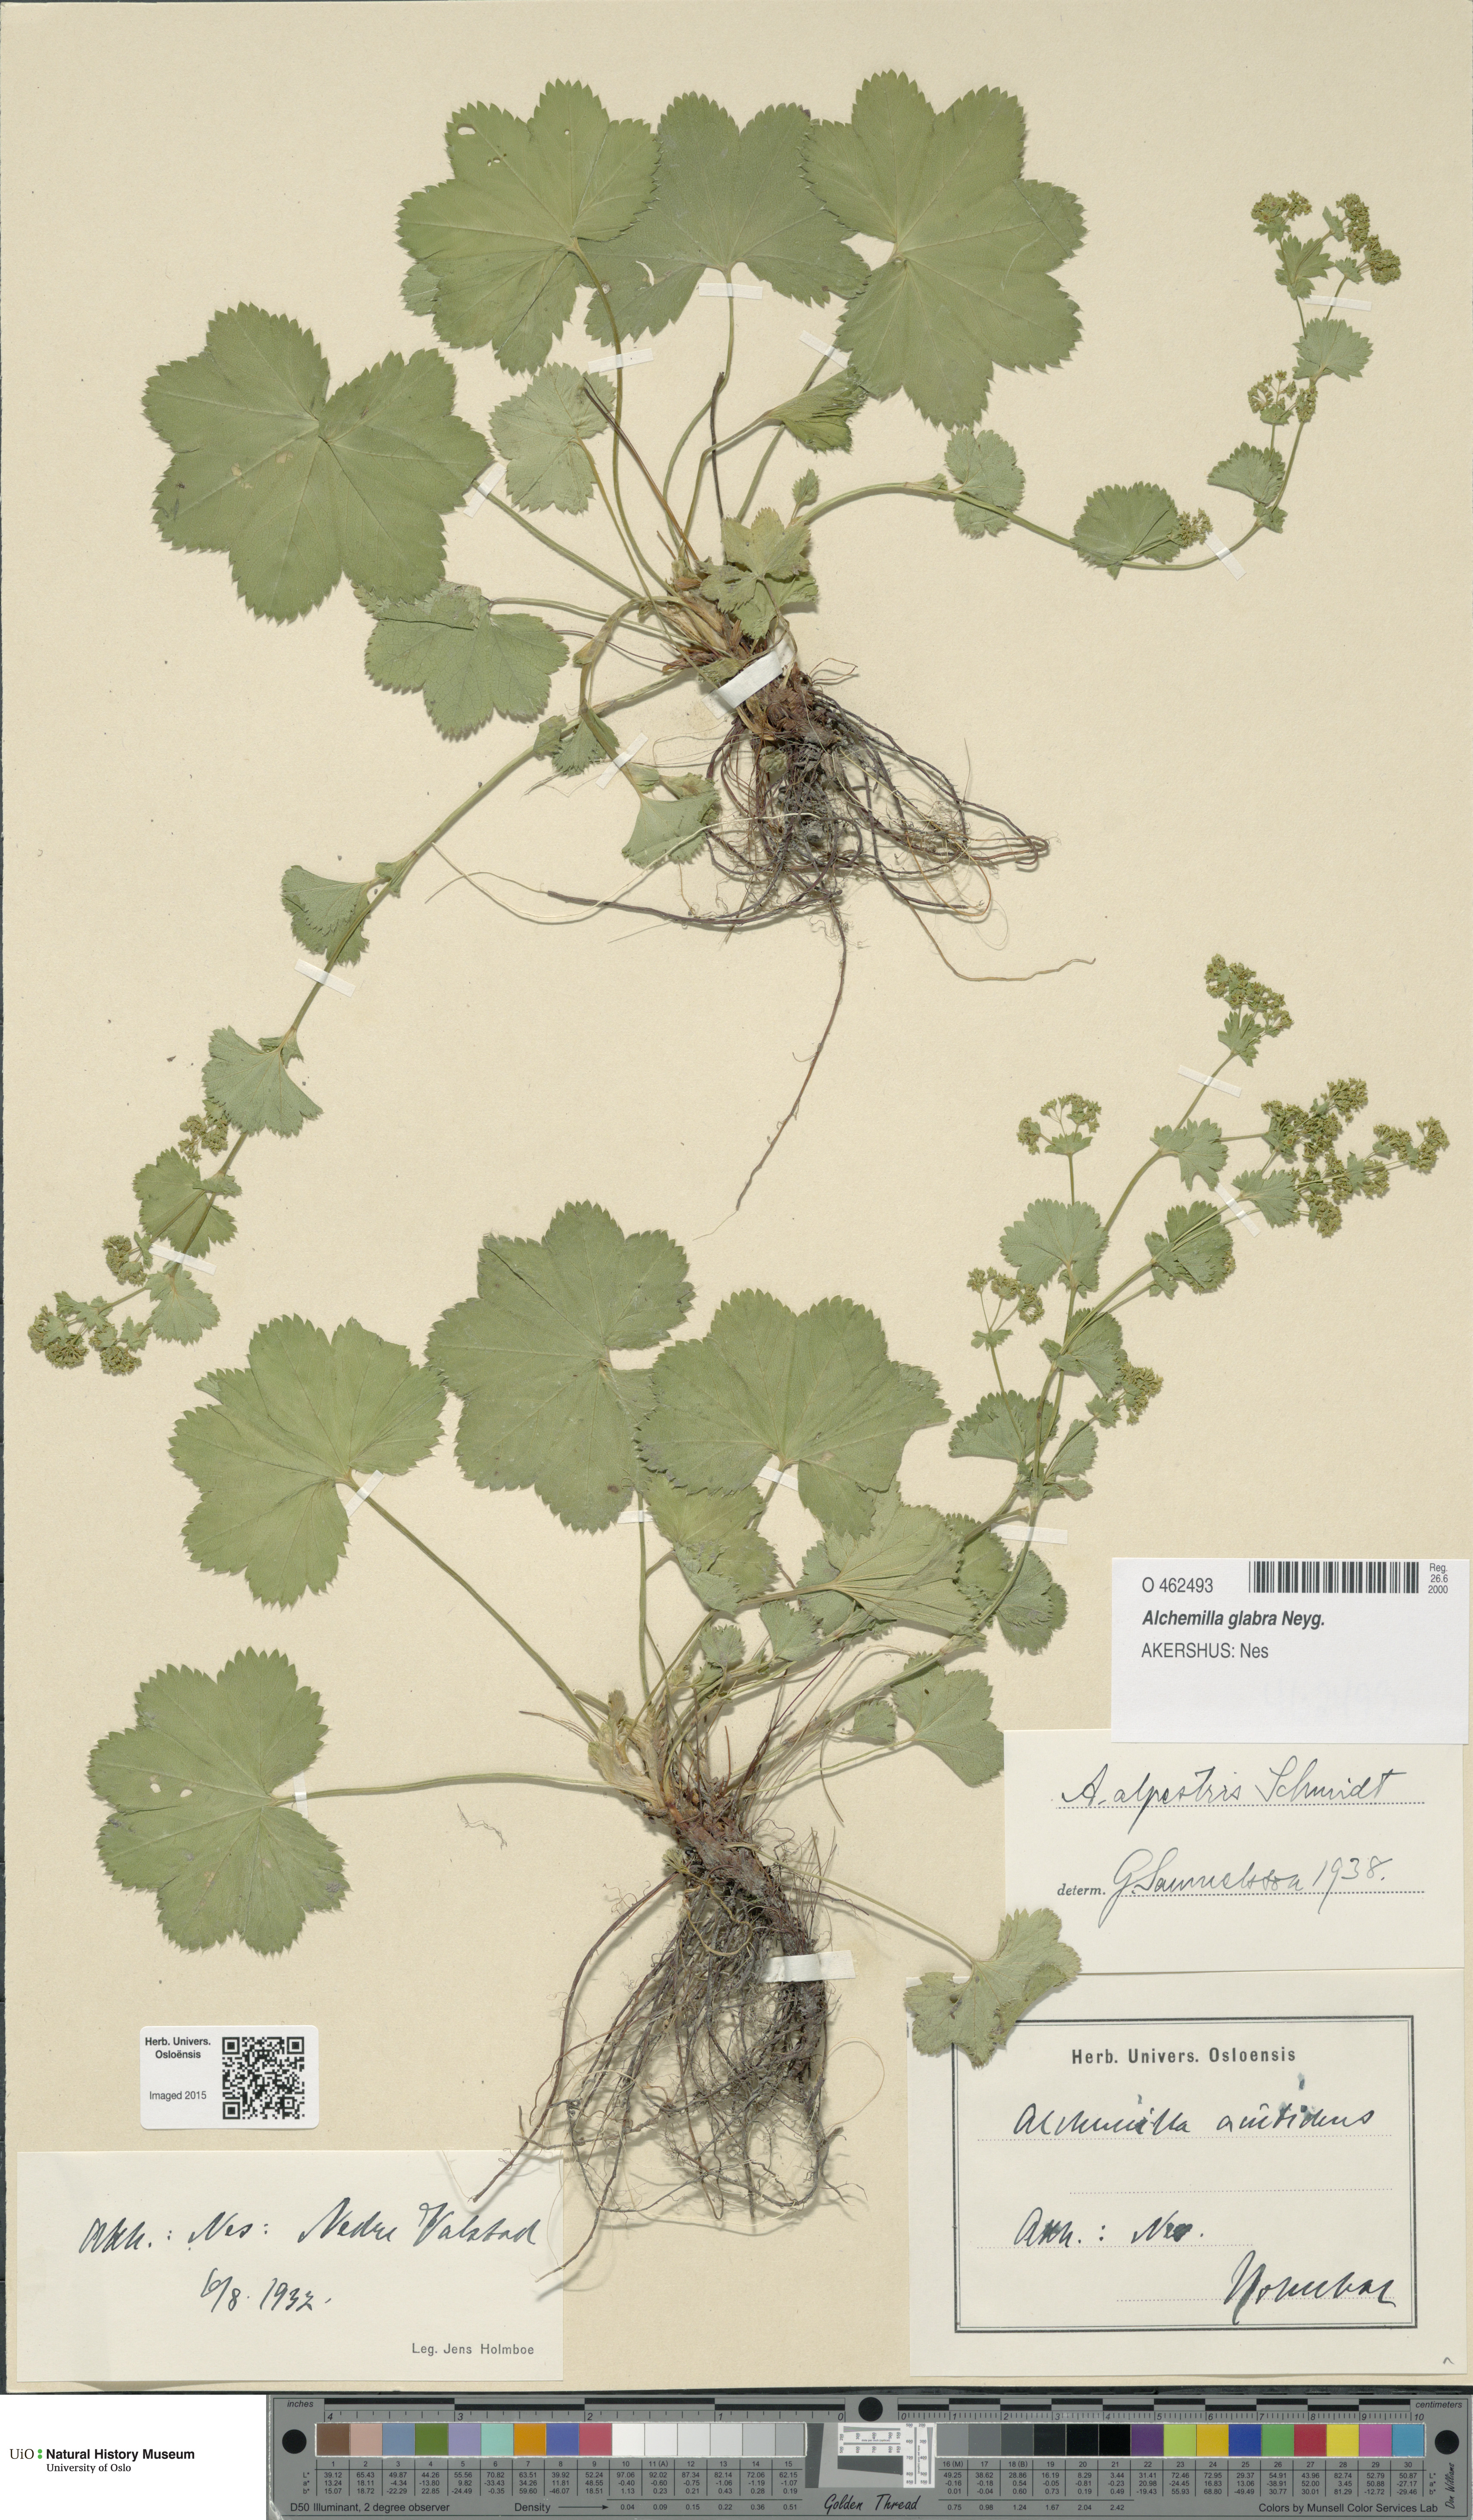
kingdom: Plantae
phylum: Tracheophyta
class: Magnoliopsida
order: Rosales
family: Rosaceae
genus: Alchemilla
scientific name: Alchemilla glabra
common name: Smooth lady's-mantle
